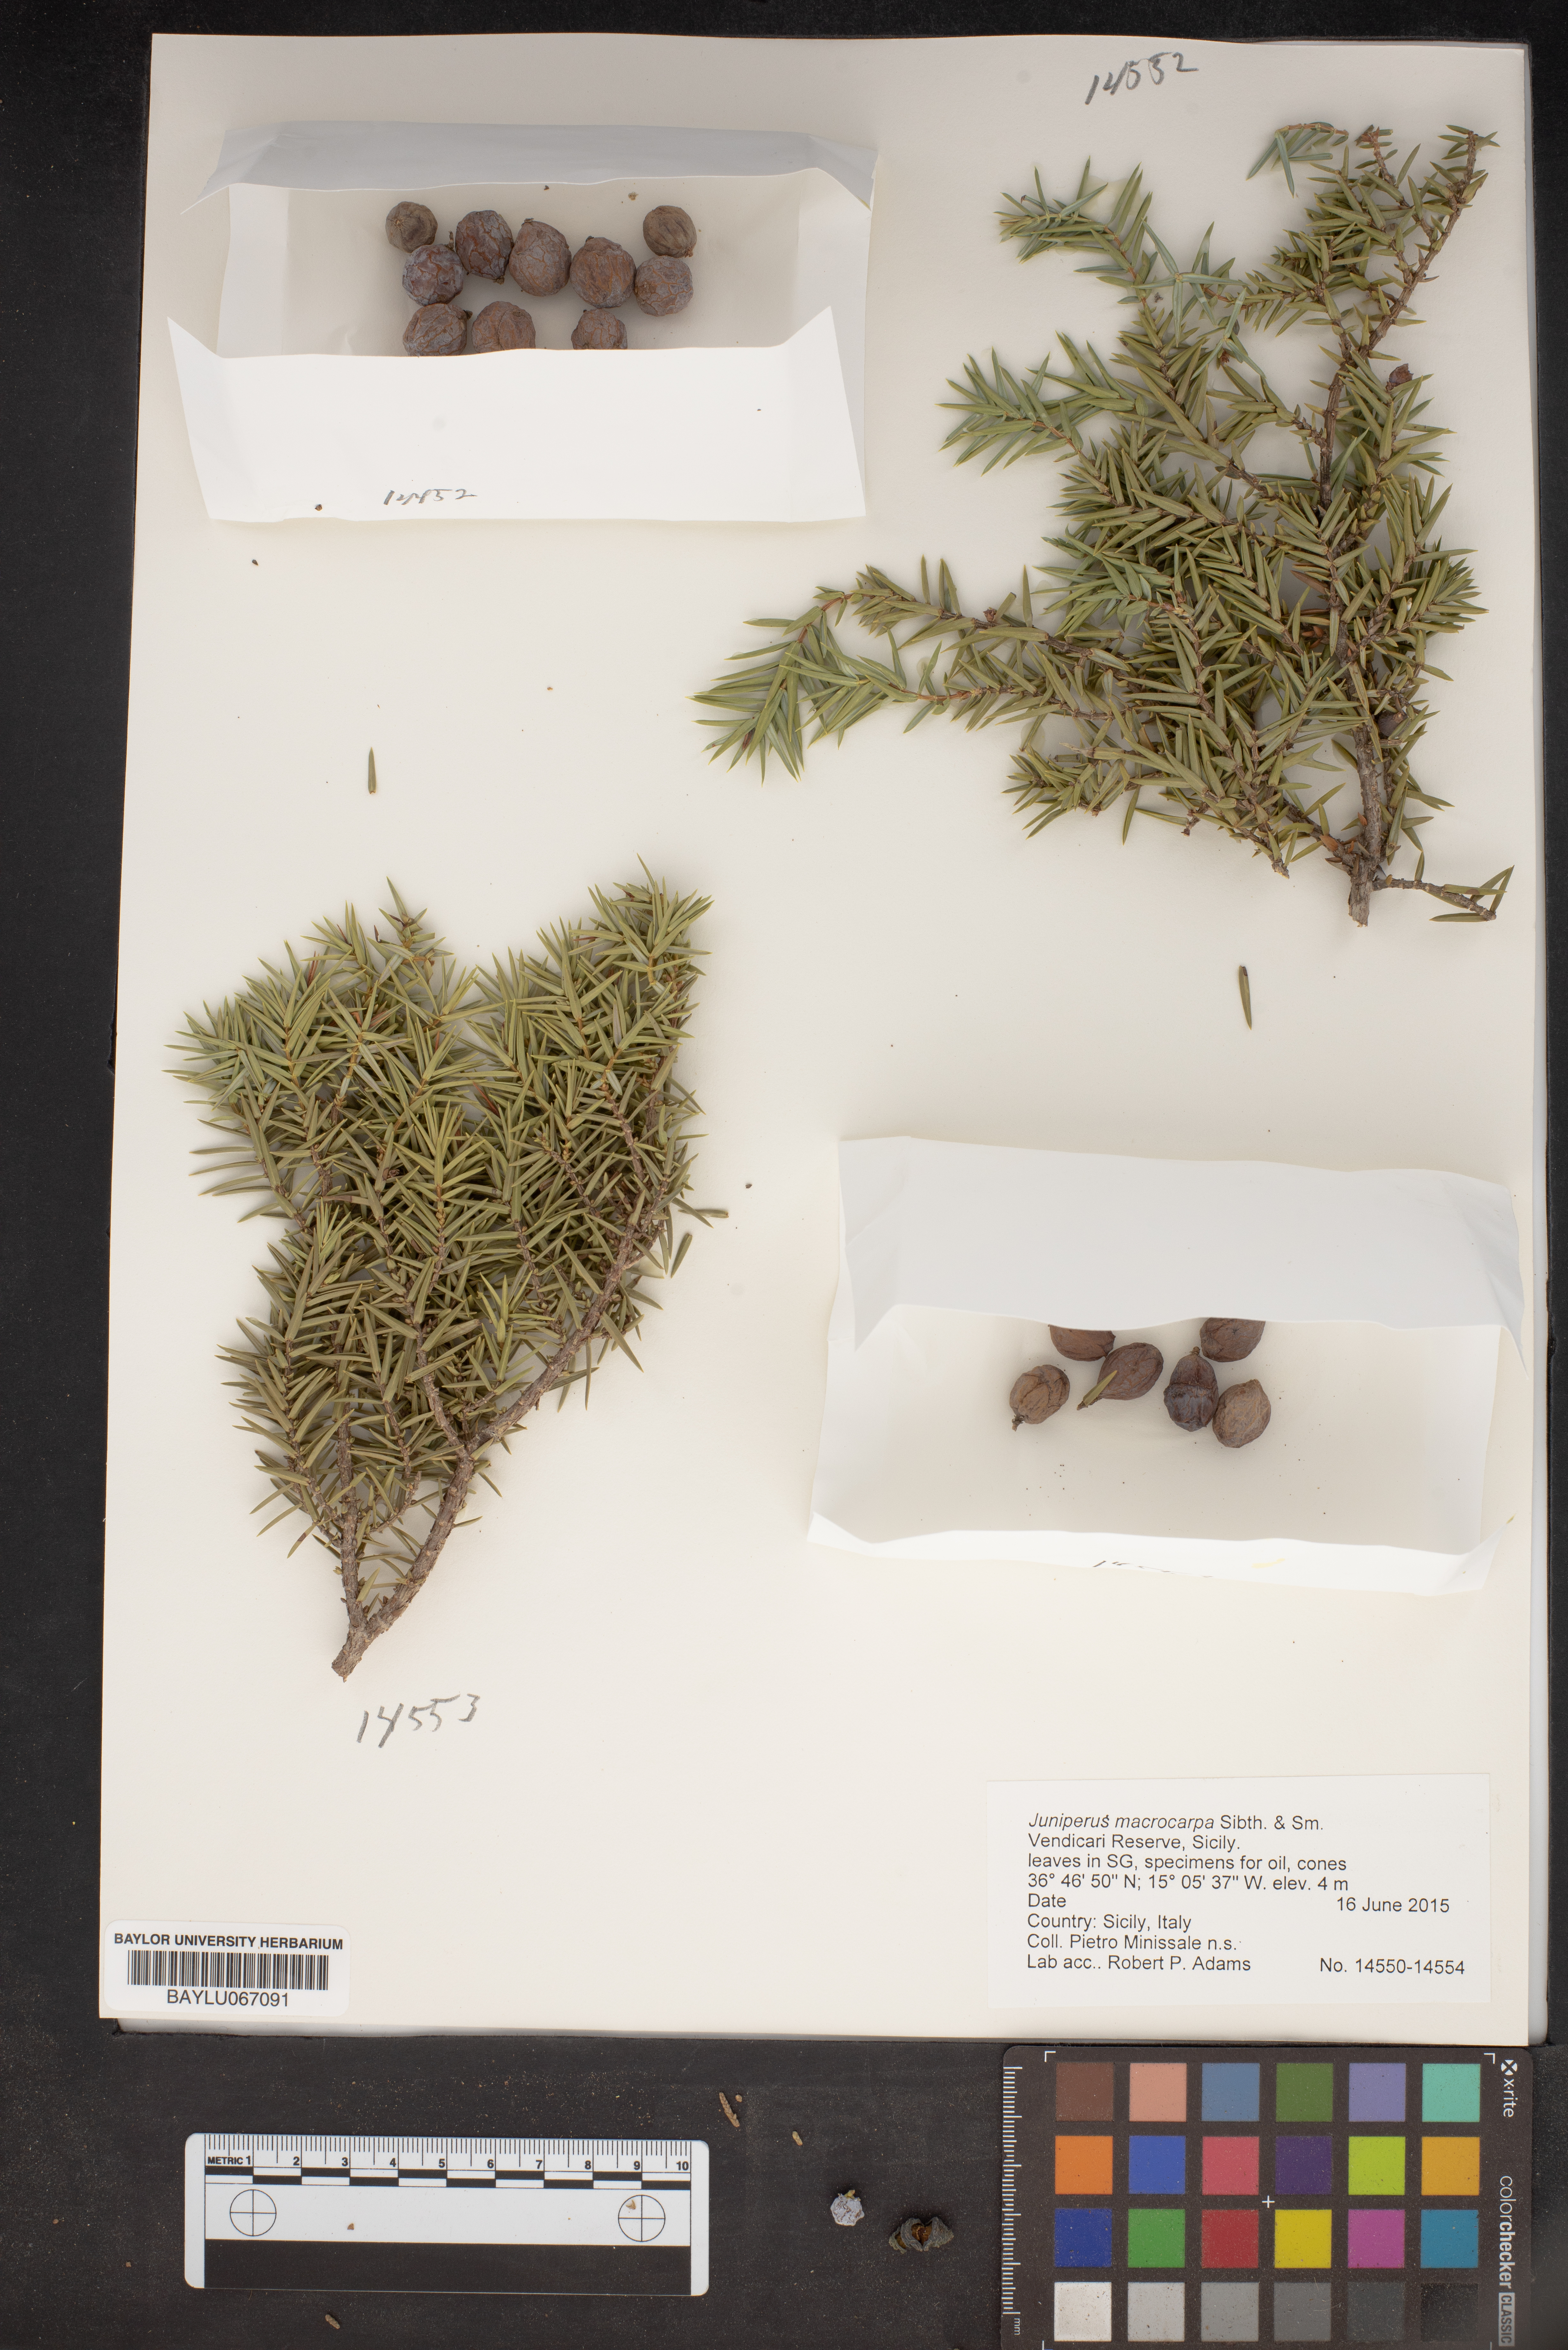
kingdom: Plantae
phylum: Tracheophyta
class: Pinopsida
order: Pinales
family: Cupressaceae
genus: Juniperus
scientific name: Juniperus oxycedrus
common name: Prickly juniper
